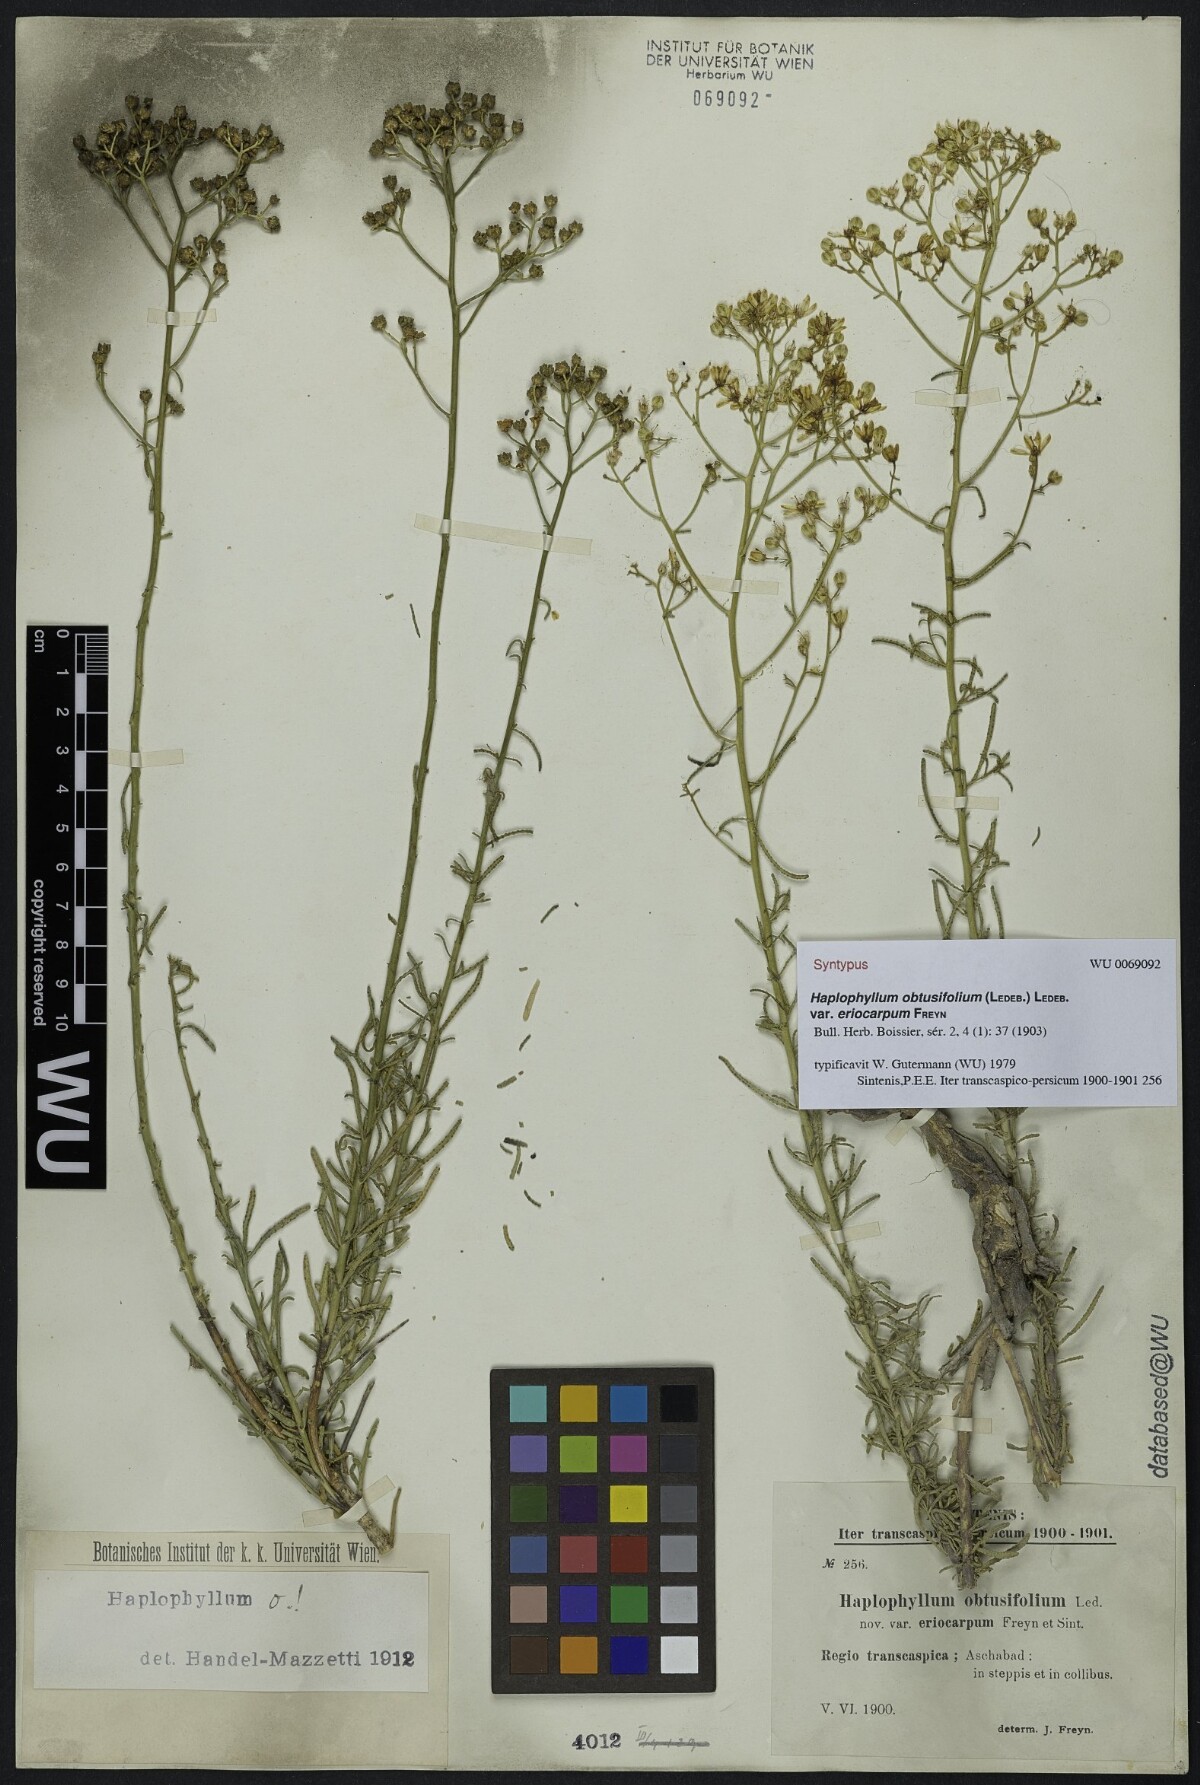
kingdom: Plantae
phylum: Tracheophyta
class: Magnoliopsida
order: Sapindales
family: Rutaceae
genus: Haplophyllum
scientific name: Haplophyllum obtusifolium
